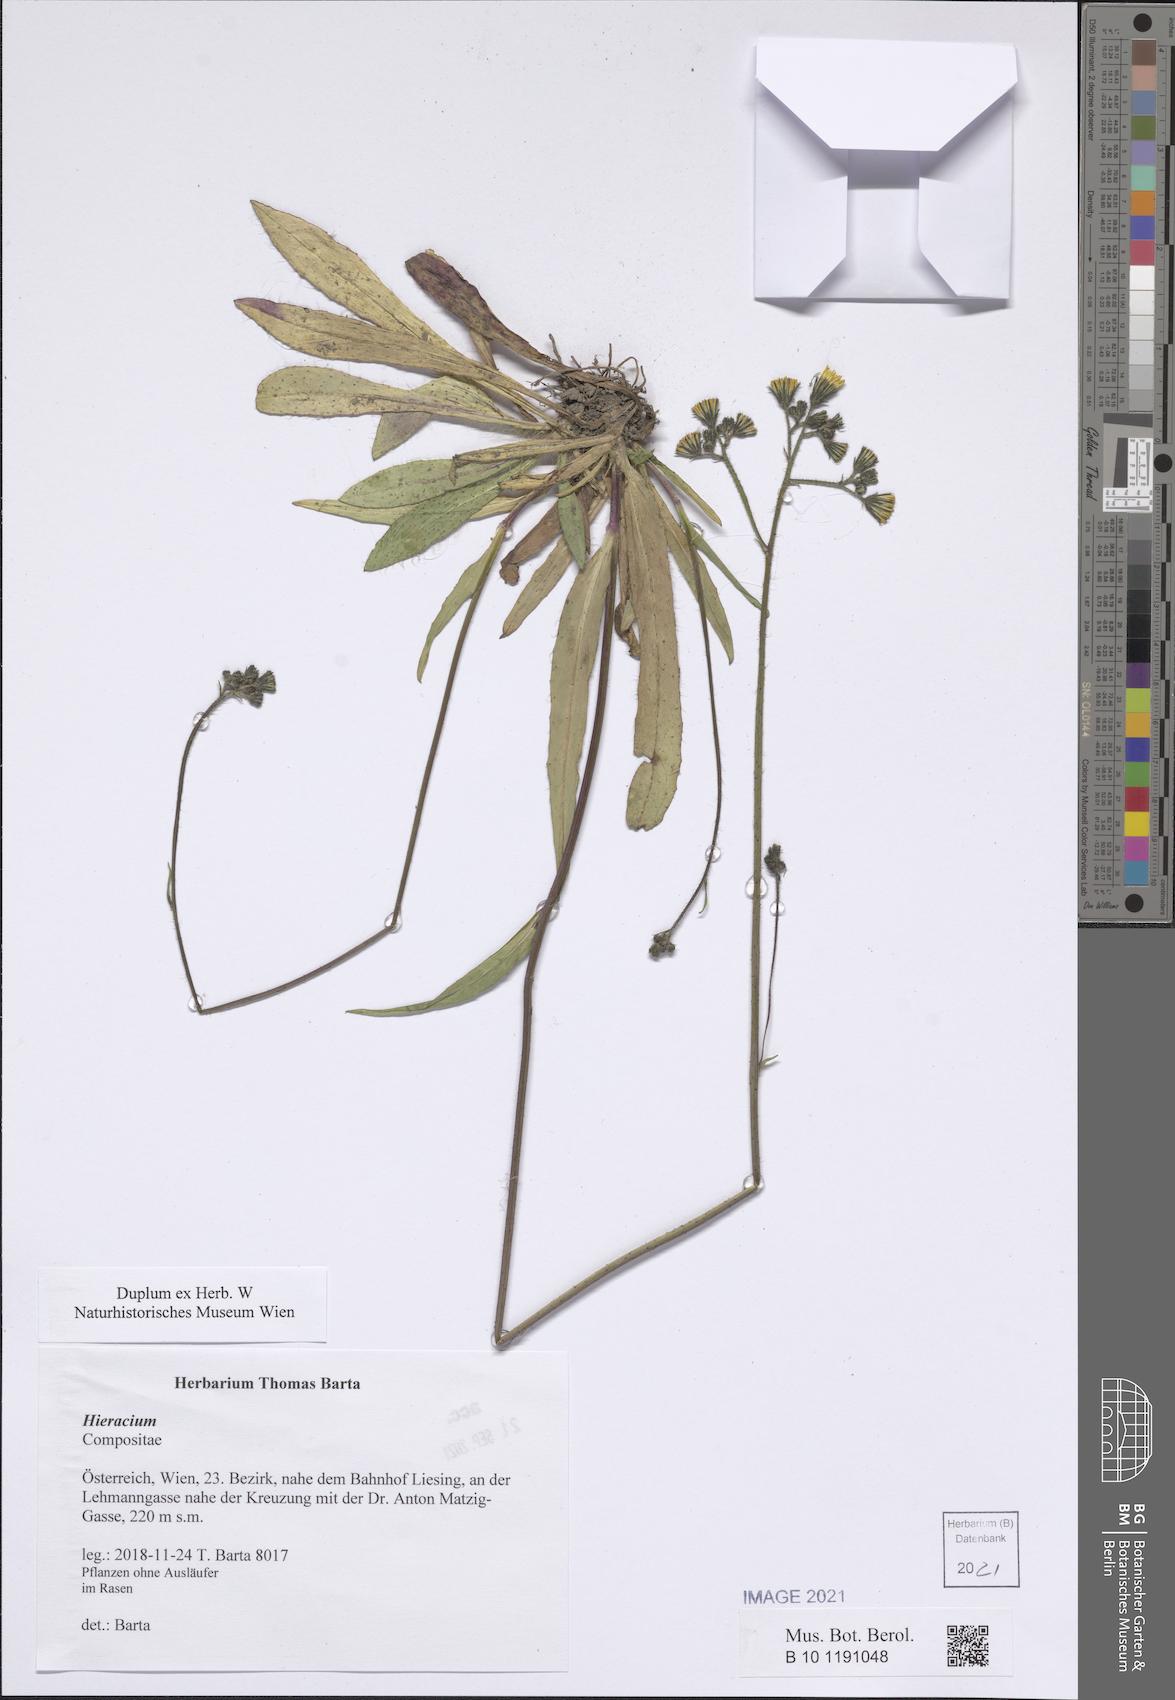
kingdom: Plantae
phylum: Tracheophyta
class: Magnoliopsida
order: Asterales
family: Asteraceae
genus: Hieracium
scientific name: Hieracium
